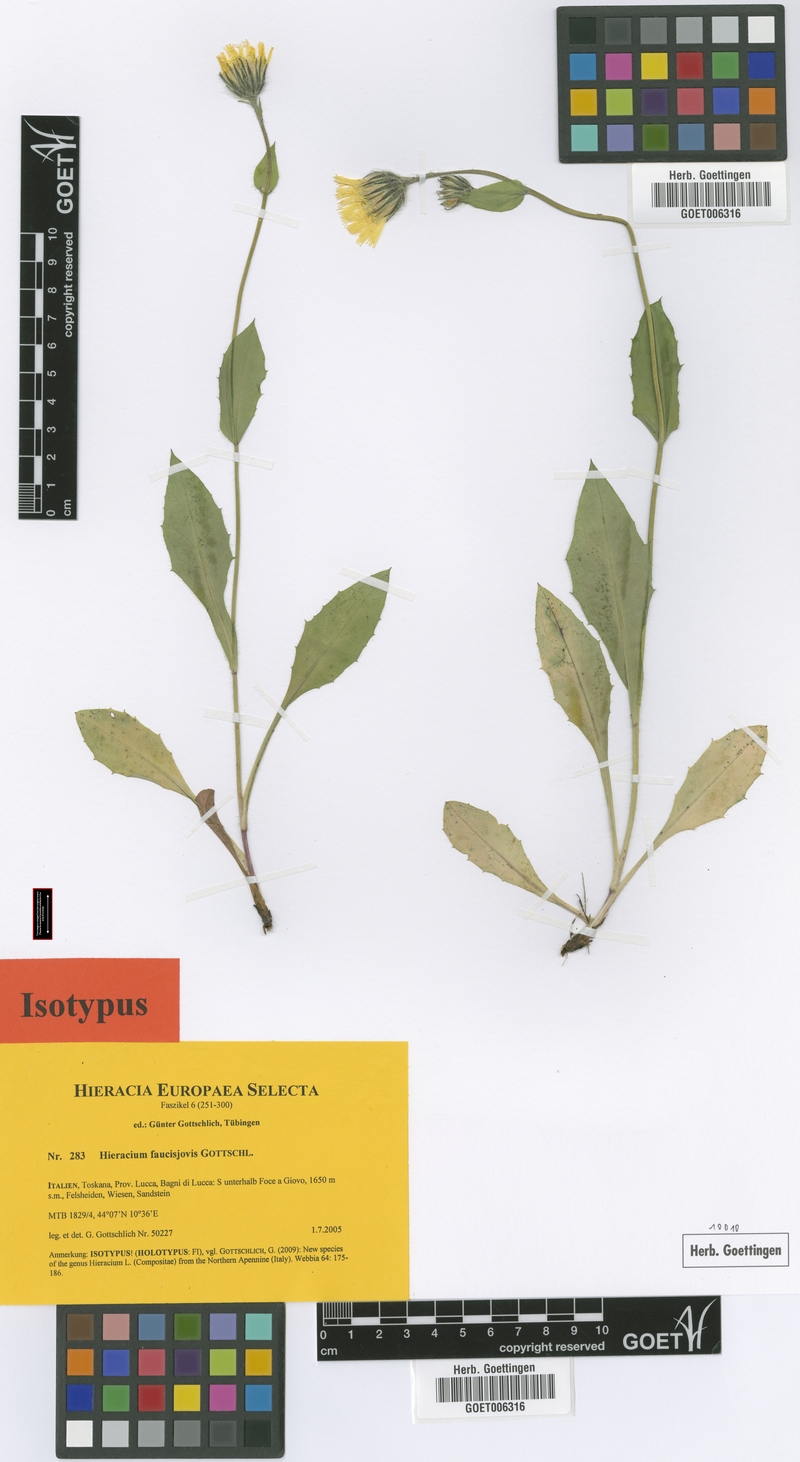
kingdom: Plantae
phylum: Tracheophyta
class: Magnoliopsida
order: Asterales
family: Asteraceae
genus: Hieracium
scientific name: Hieracium faucisjovis
